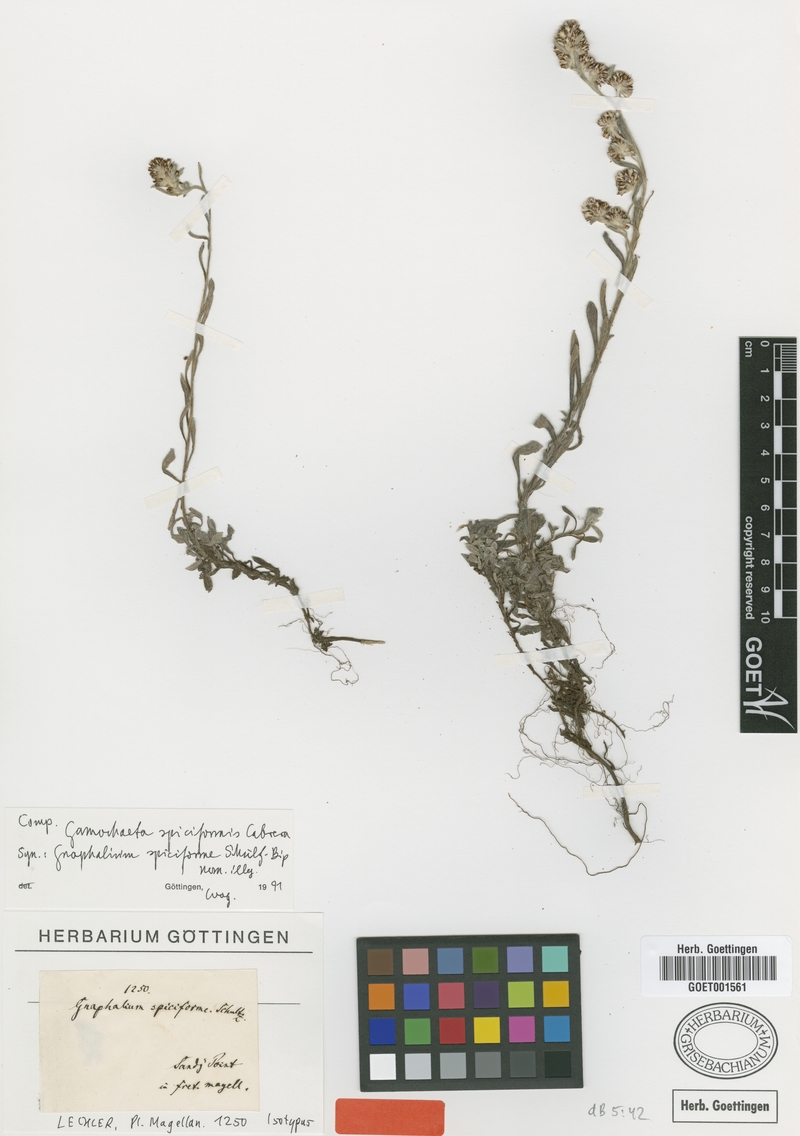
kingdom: Plantae
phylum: Tracheophyta
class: Magnoliopsida
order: Asterales
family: Asteraceae
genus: Gamochaeta
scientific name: Gamochaeta spiciformis
